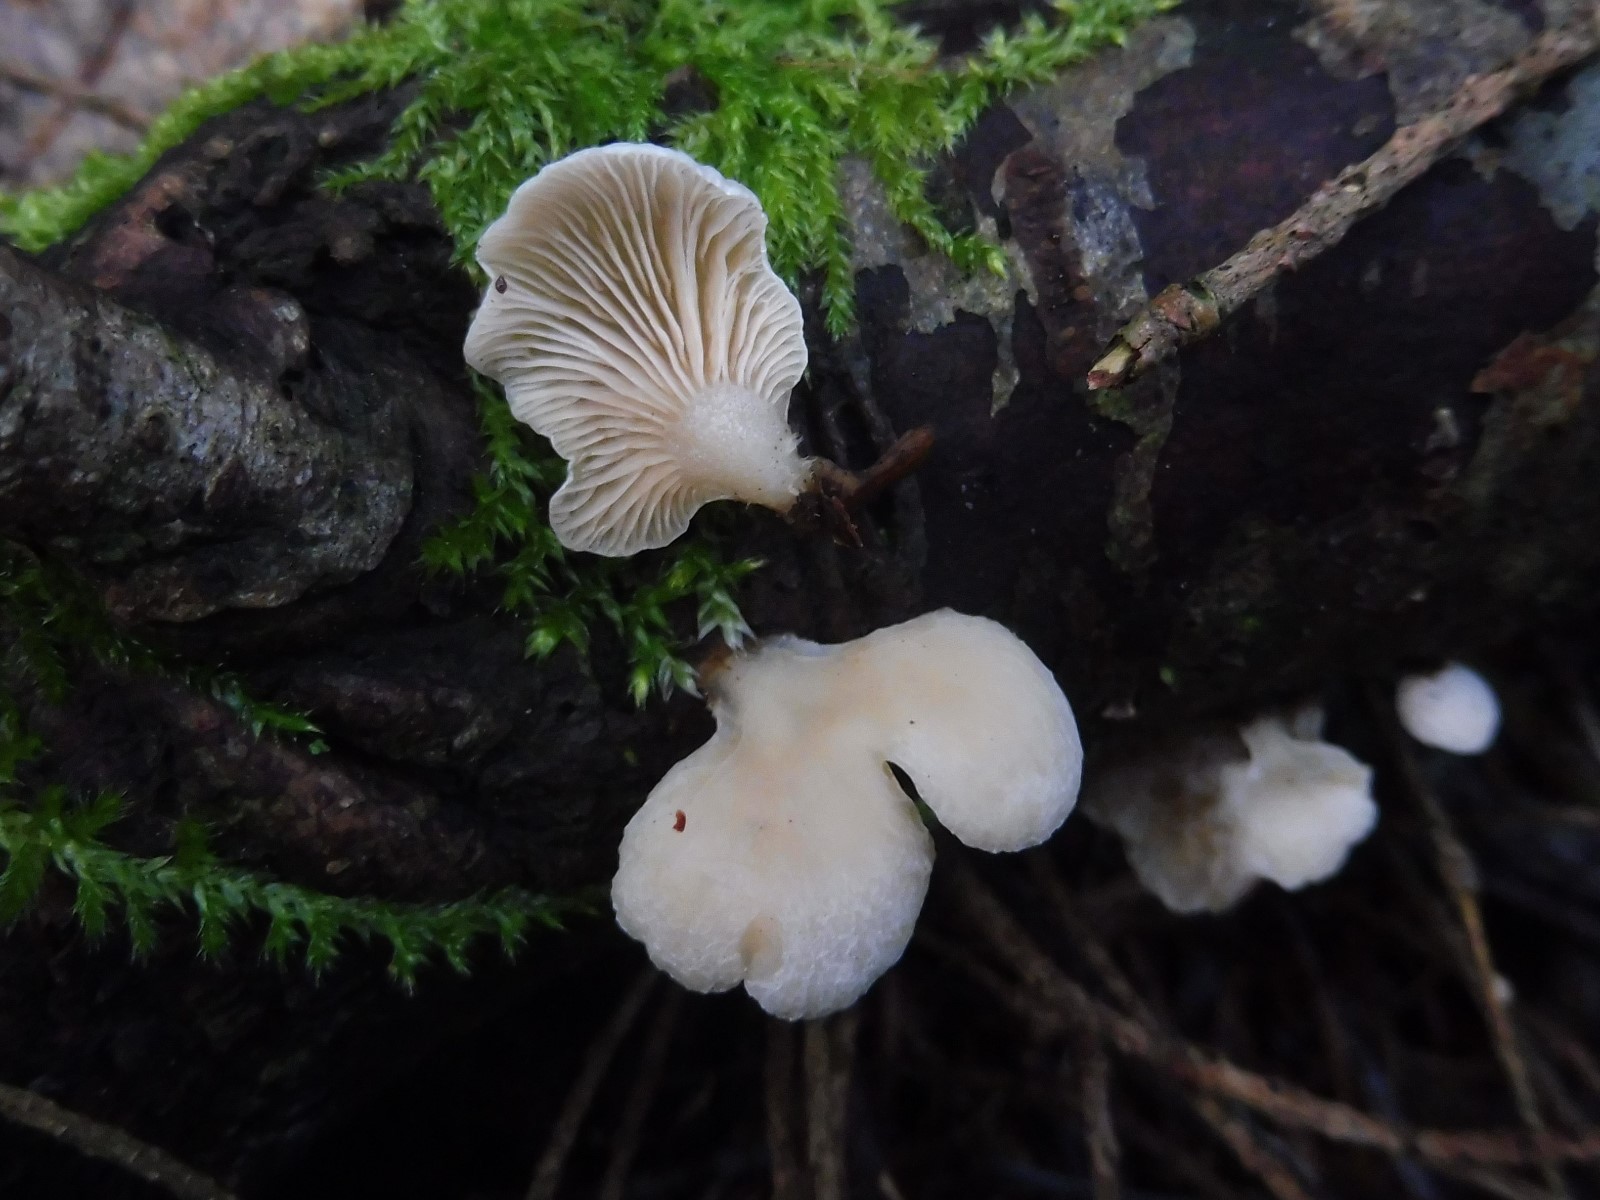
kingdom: Fungi
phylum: Basidiomycota
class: Agaricomycetes
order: Agaricales
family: Mycenaceae
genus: Panellus
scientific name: Panellus mitis
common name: mild epaulethat
